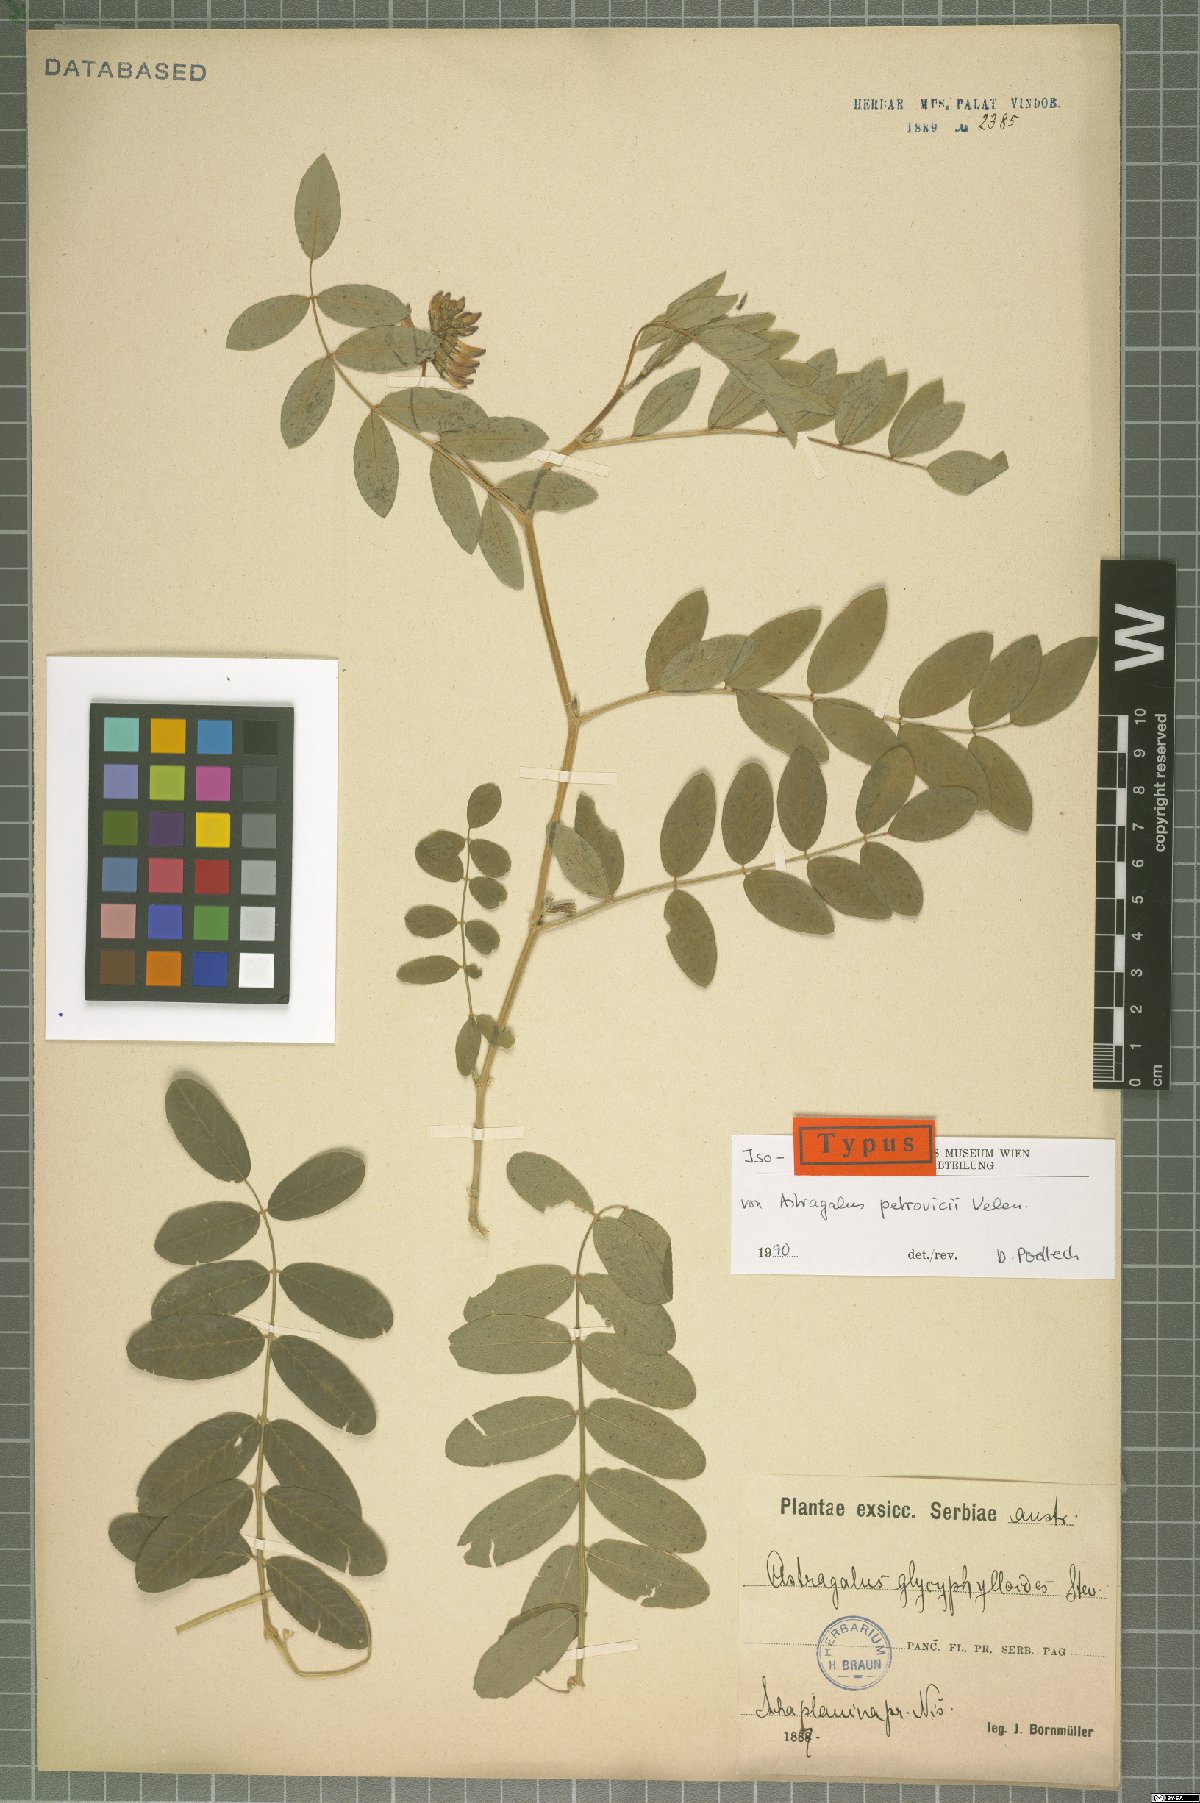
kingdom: Plantae
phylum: Tracheophyta
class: Magnoliopsida
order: Fabales
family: Fabaceae
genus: Astragalus
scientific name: Astragalus glycyphylloides
